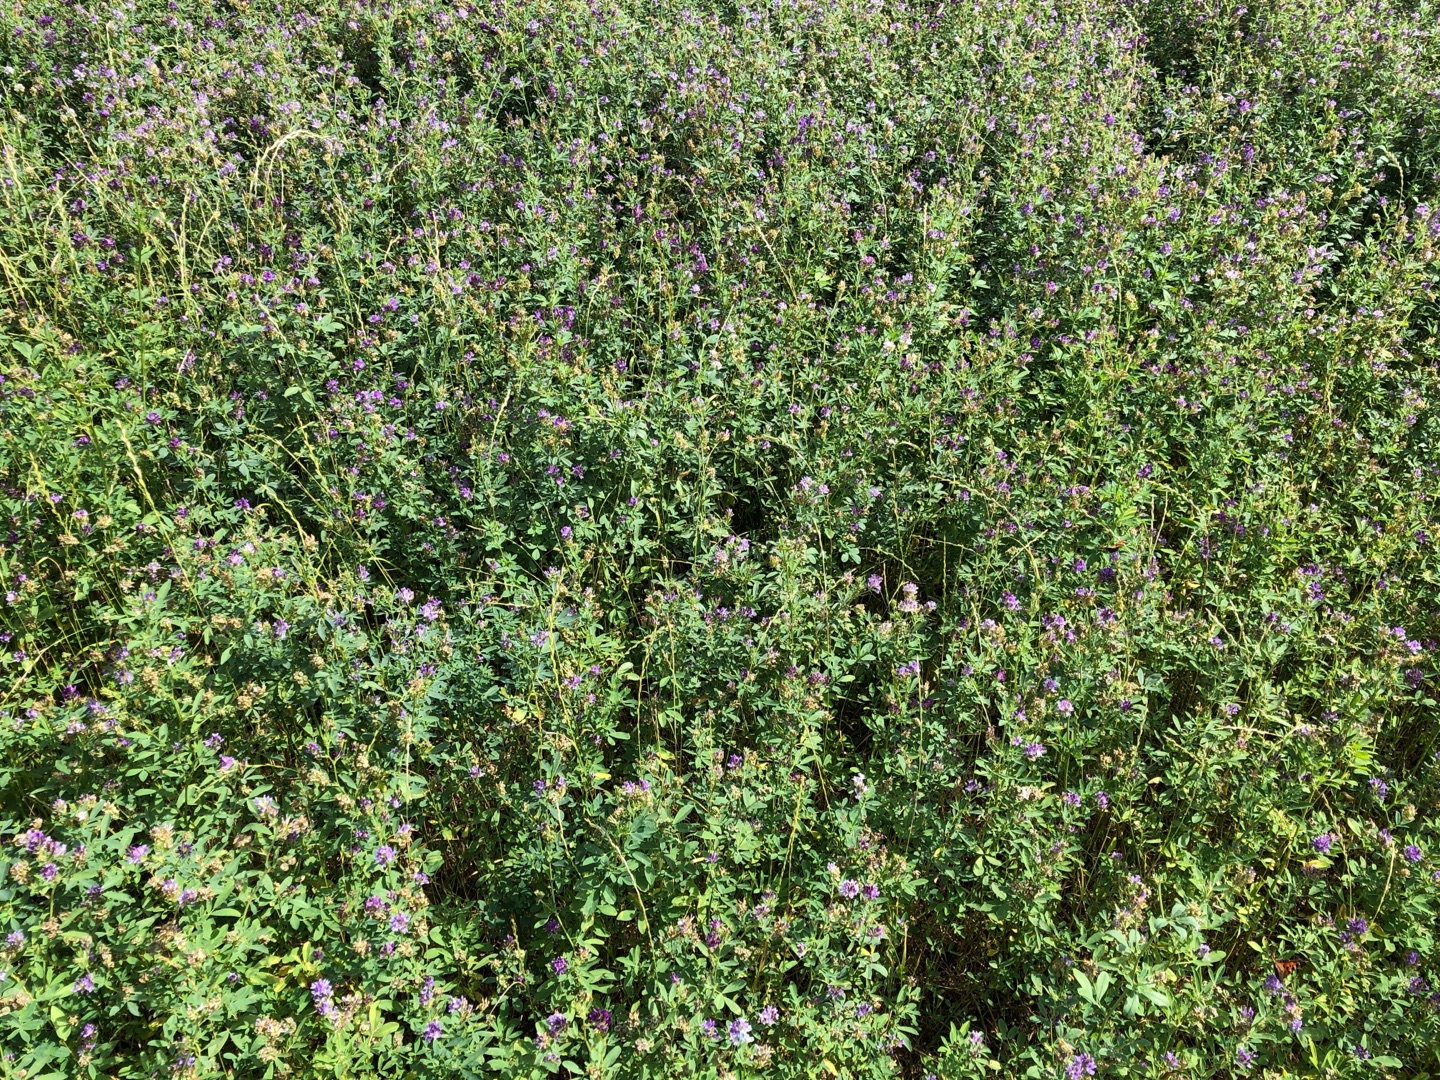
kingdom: Plantae
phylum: Tracheophyta
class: Magnoliopsida
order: Fabales
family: Fabaceae
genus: Medicago
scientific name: Medicago sativa
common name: Lucerne
